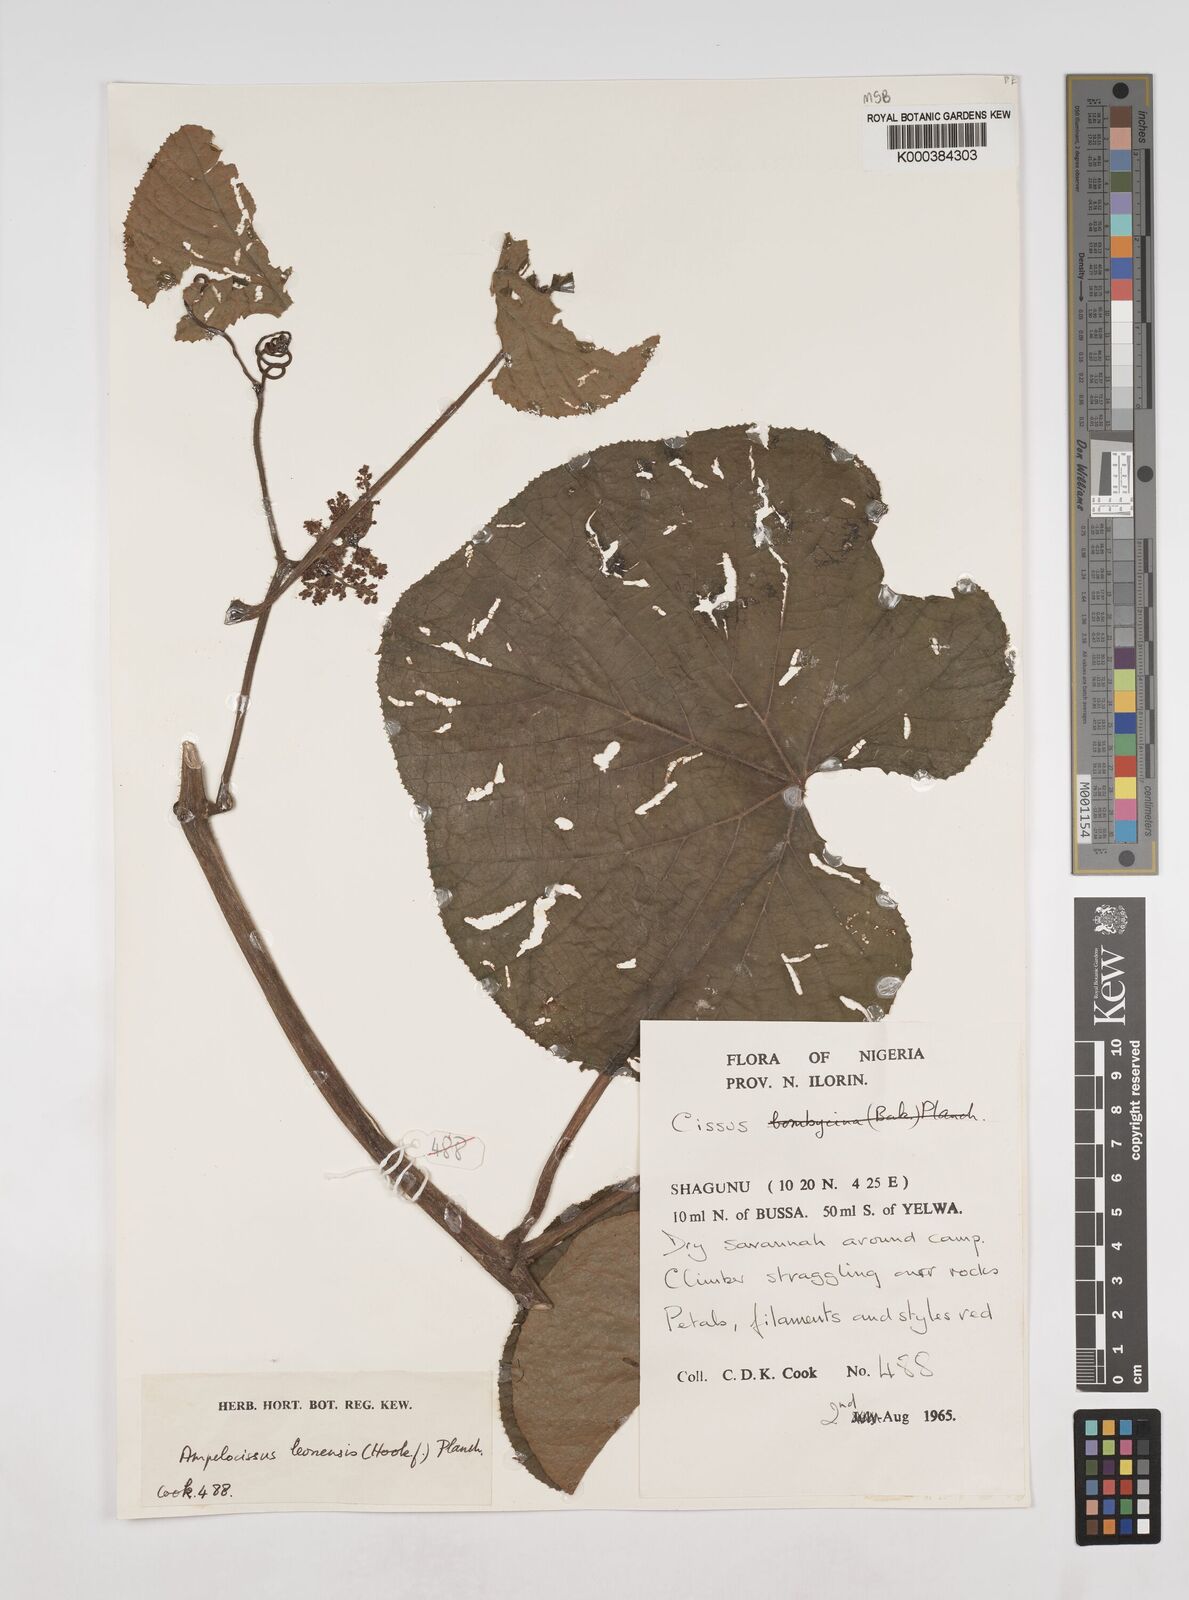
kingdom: Plantae
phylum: Tracheophyta
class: Magnoliopsida
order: Vitales
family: Vitaceae
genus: Ampelocissus
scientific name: Ampelocissus leonensis
